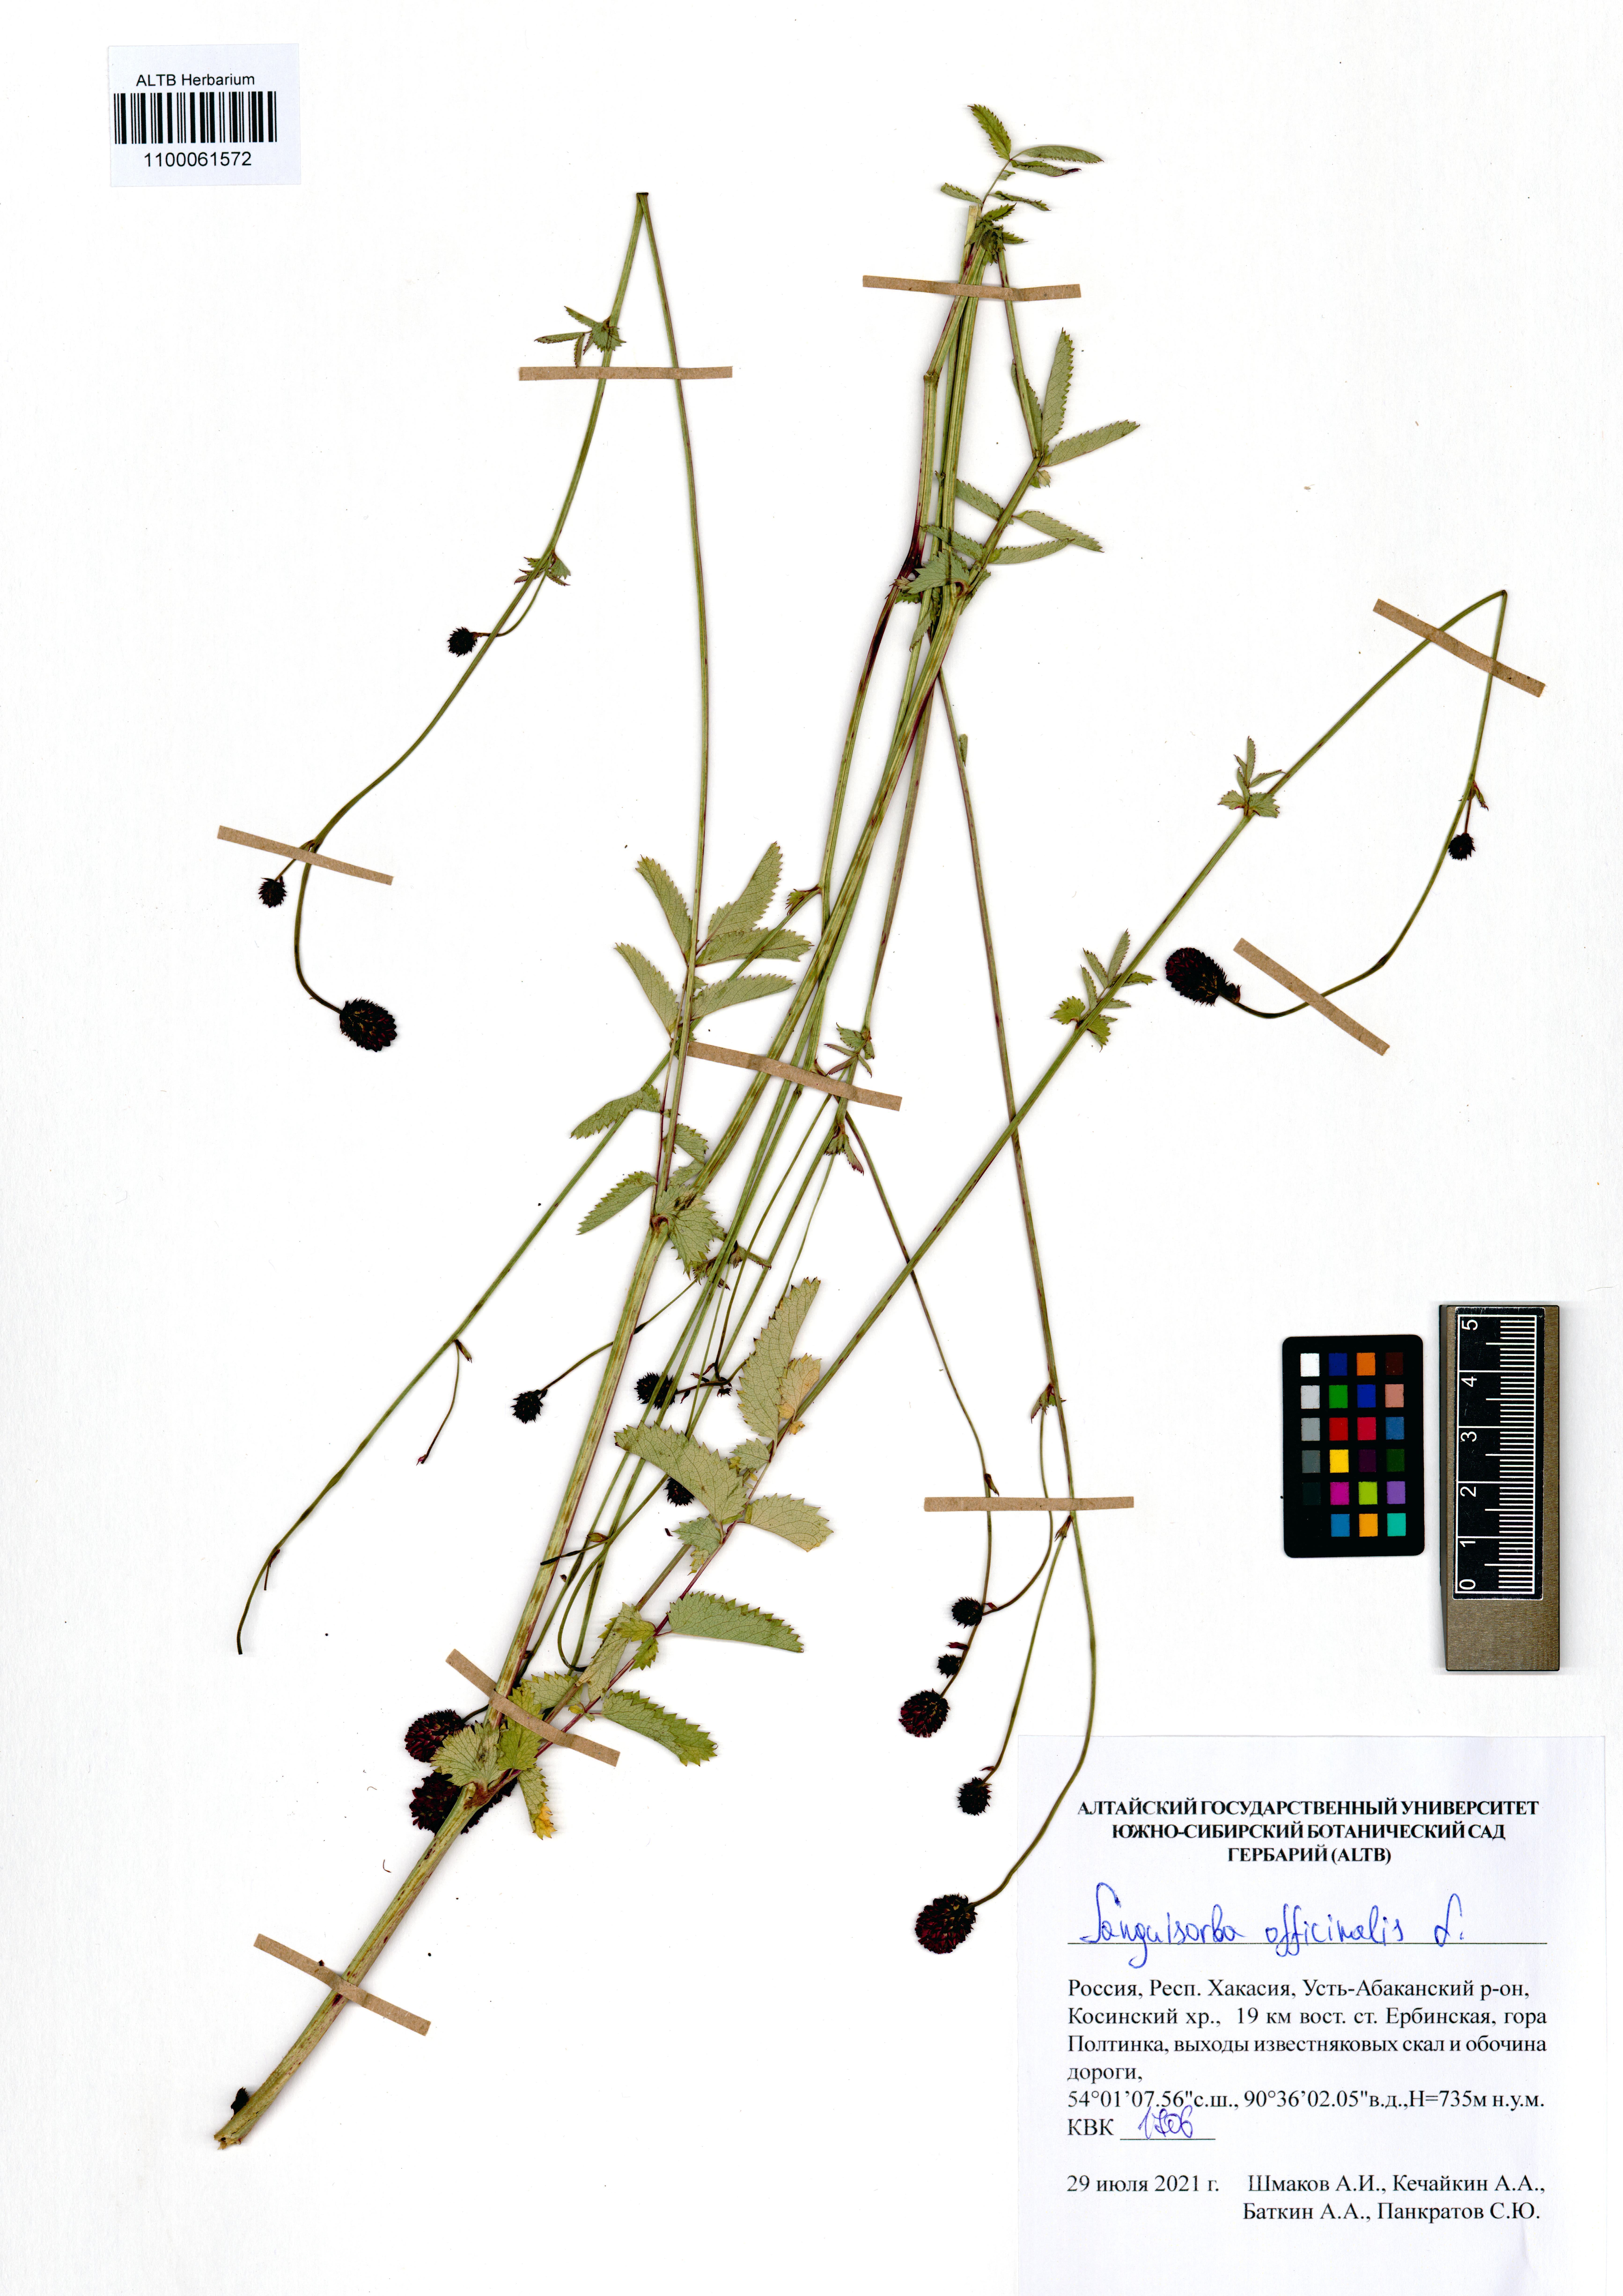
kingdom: Plantae
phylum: Tracheophyta
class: Magnoliopsida
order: Rosales
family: Rosaceae
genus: Sanguisorba
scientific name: Sanguisorba officinalis
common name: Great burnet
